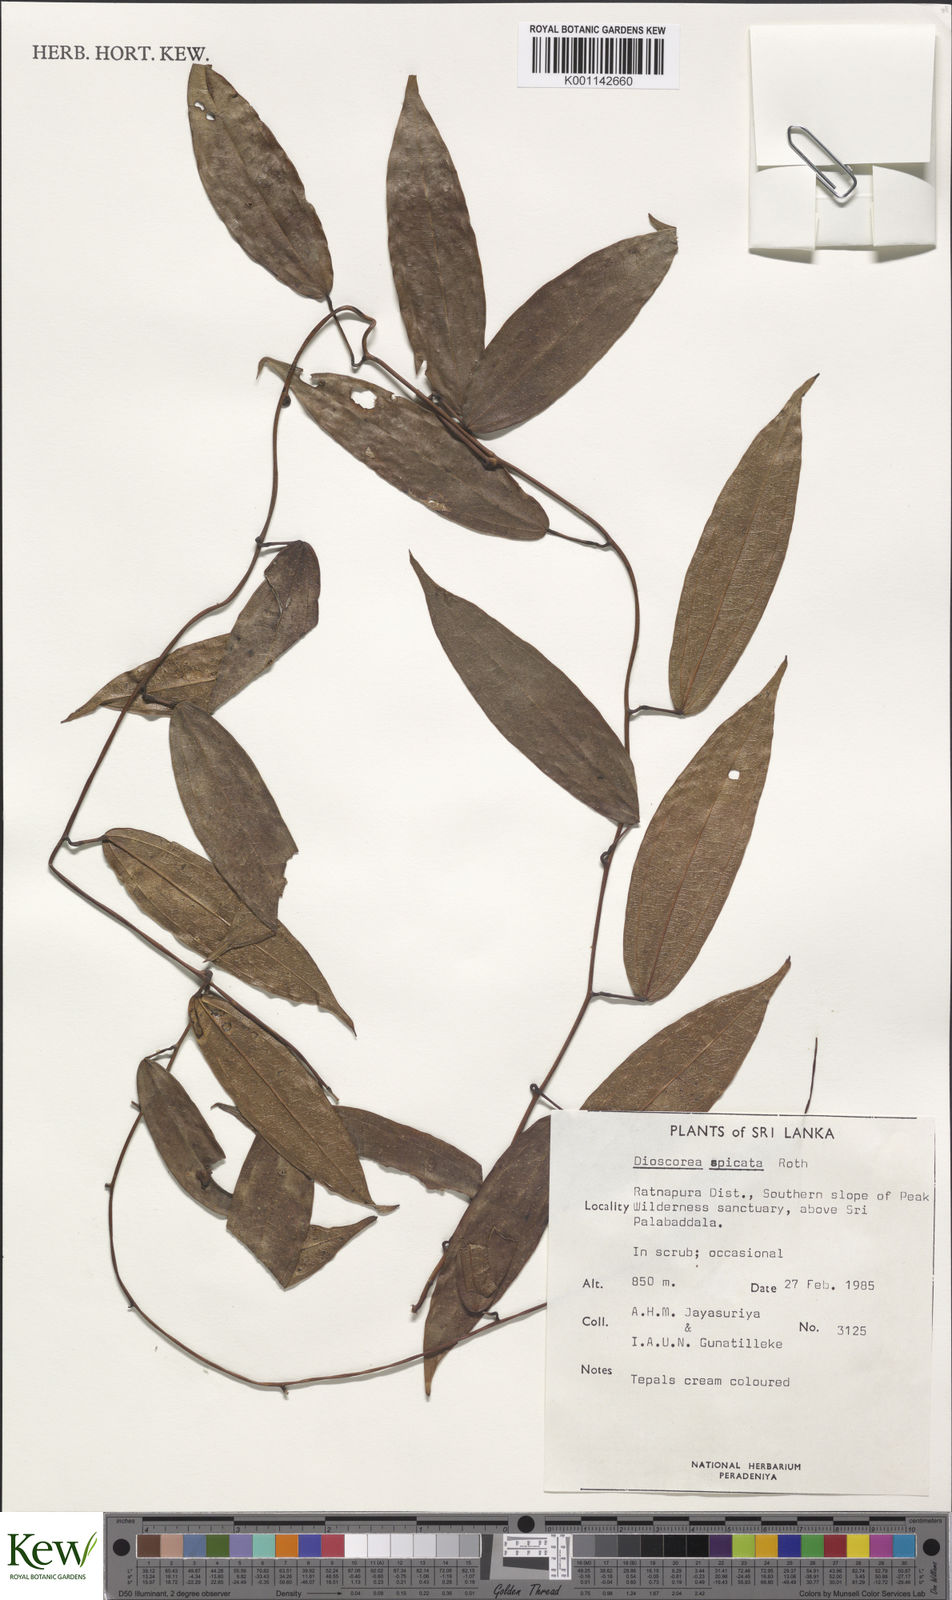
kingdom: Plantae
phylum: Tracheophyta
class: Liliopsida
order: Dioscoreales
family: Dioscoreaceae
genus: Dioscorea
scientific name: Dioscorea spicata
